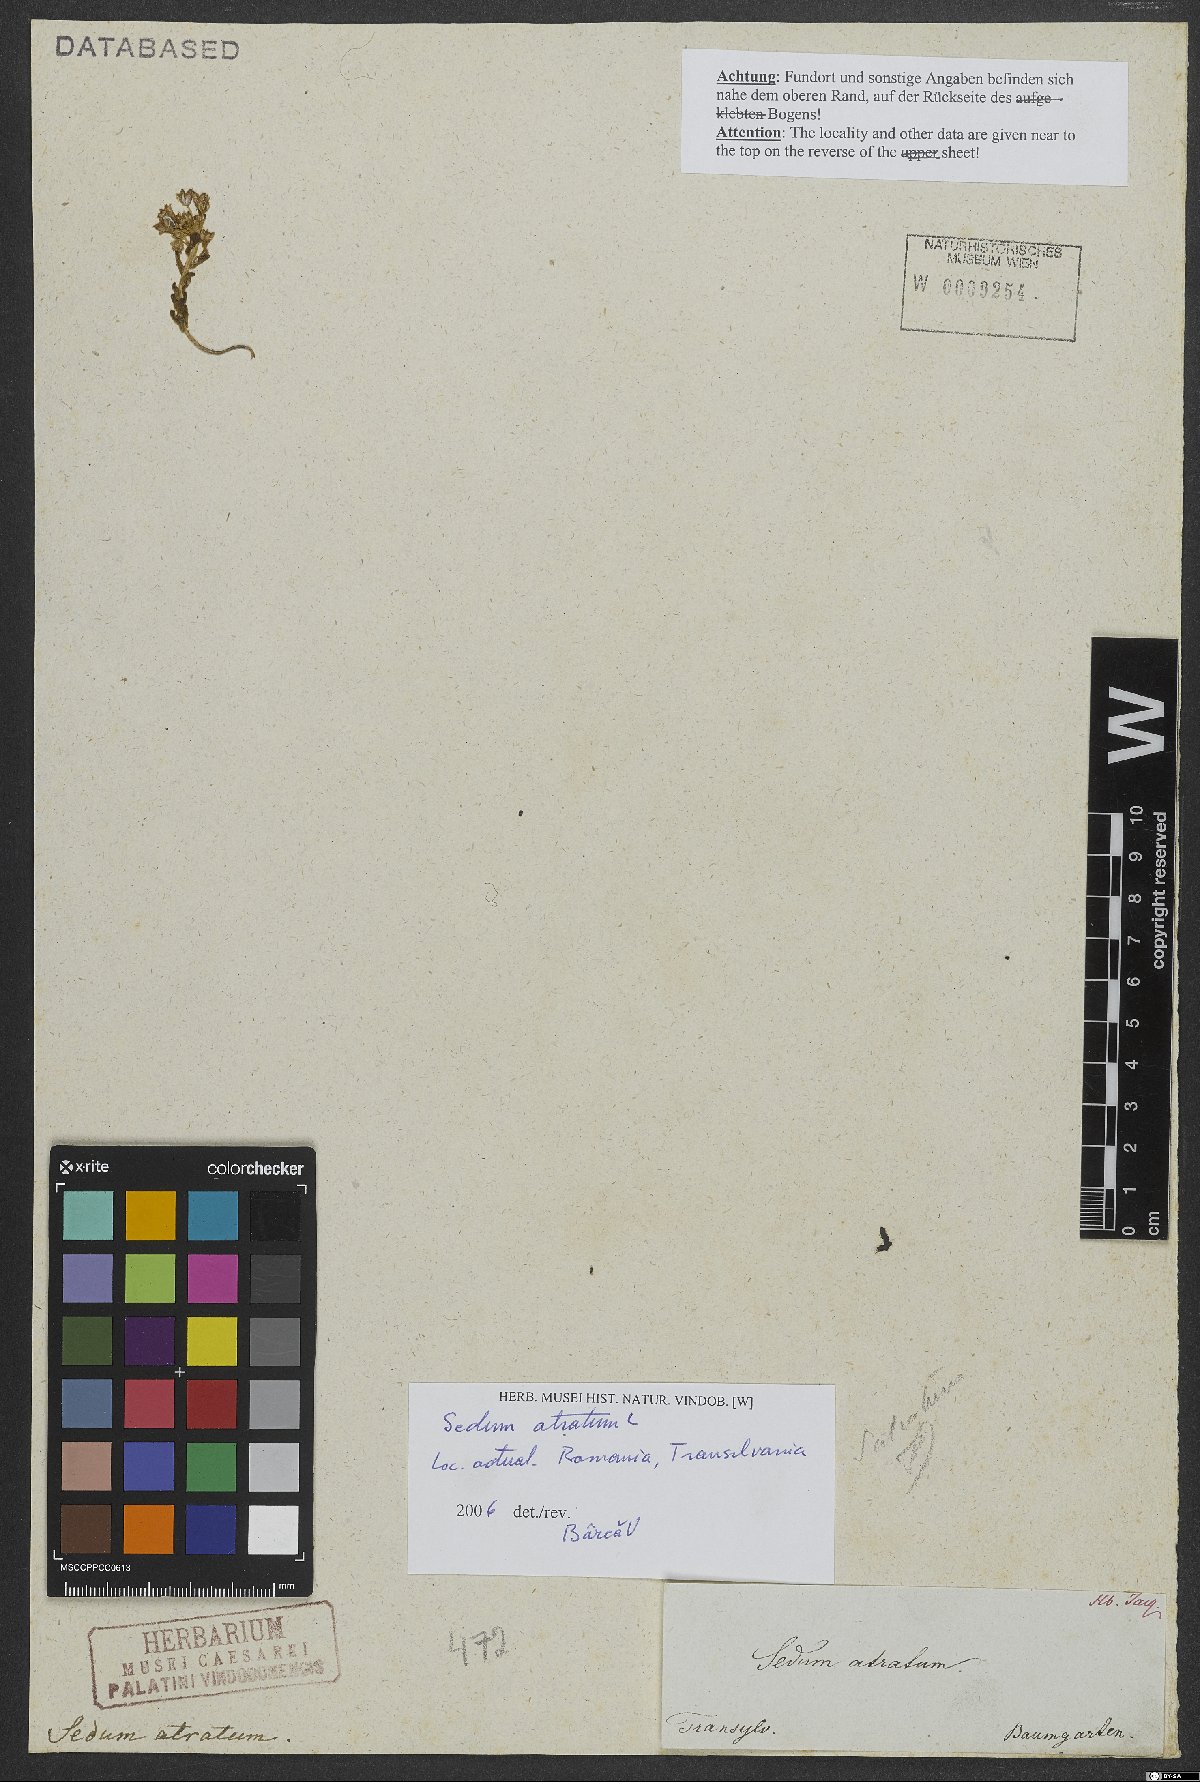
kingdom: Plantae
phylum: Tracheophyta
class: Magnoliopsida
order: Saxifragales
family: Crassulaceae
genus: Sedum
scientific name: Sedum atratum
